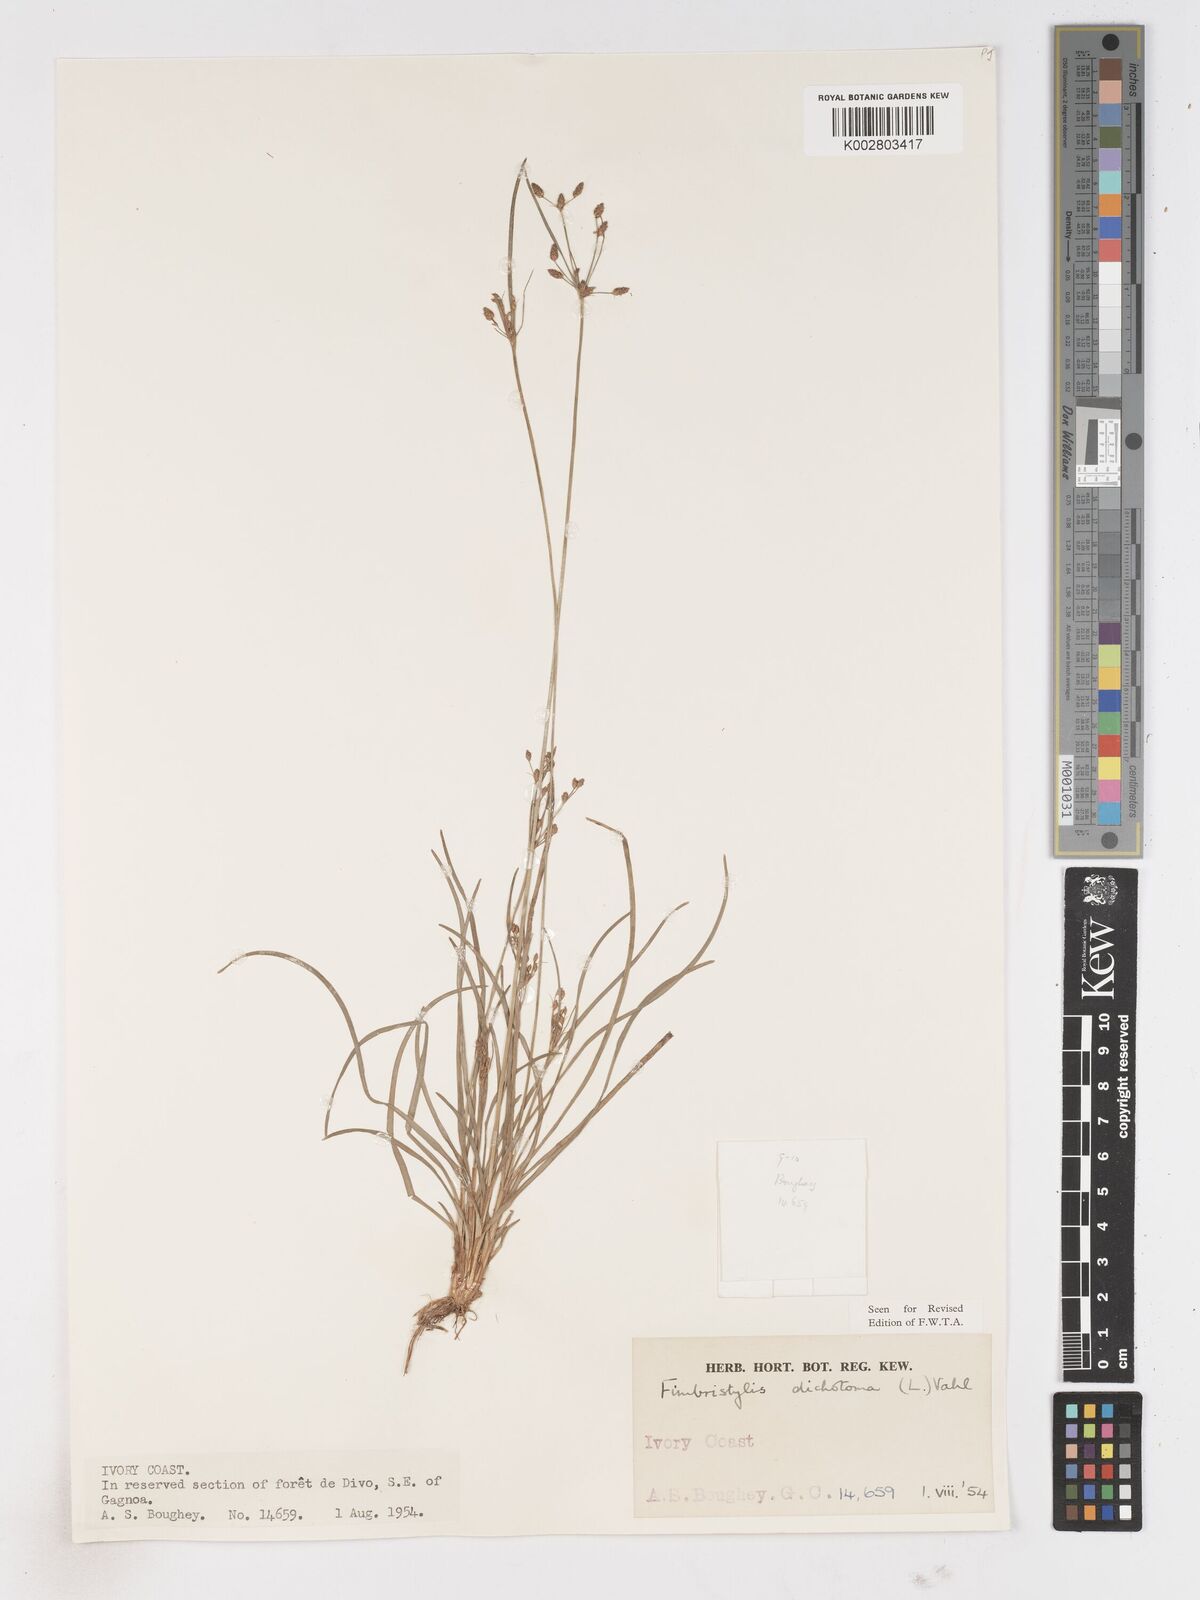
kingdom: Plantae
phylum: Tracheophyta
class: Liliopsida
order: Poales
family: Cyperaceae
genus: Fimbristylis
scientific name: Fimbristylis dichotoma
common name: Forked fimbry
